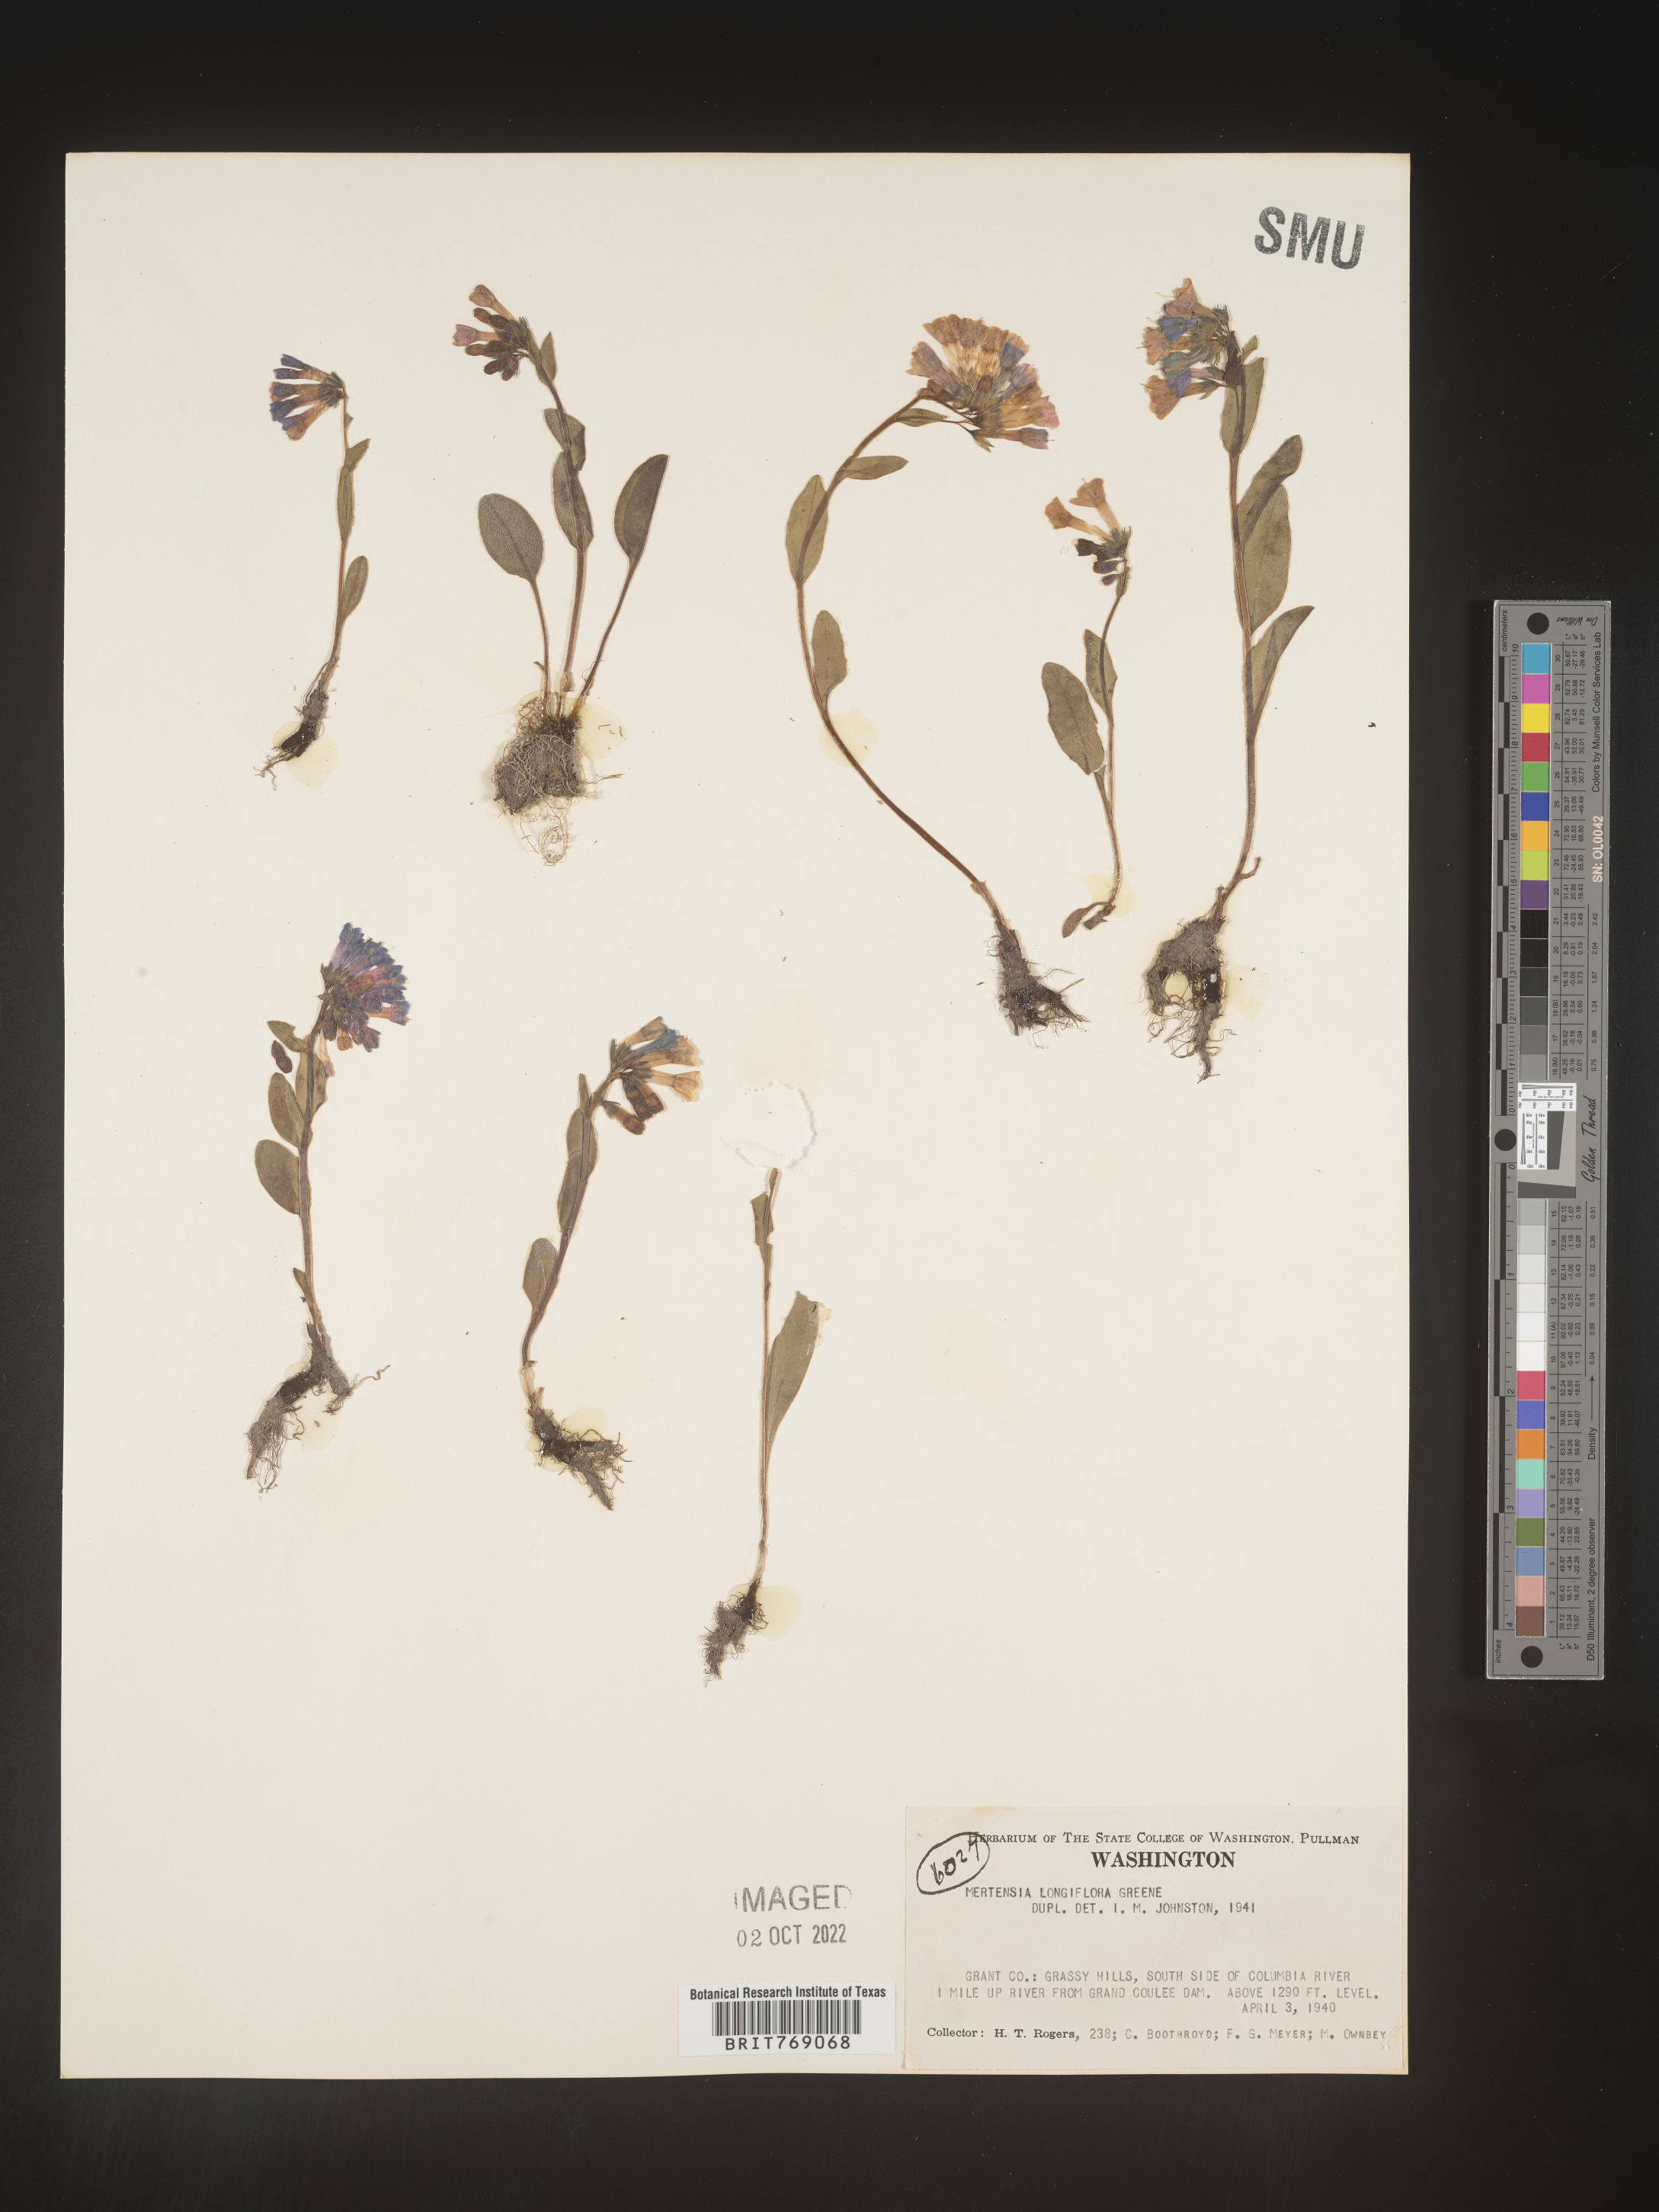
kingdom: Plantae
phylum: Tracheophyta
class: Magnoliopsida
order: Boraginales
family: Boraginaceae
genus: Mertensia
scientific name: Mertensia
